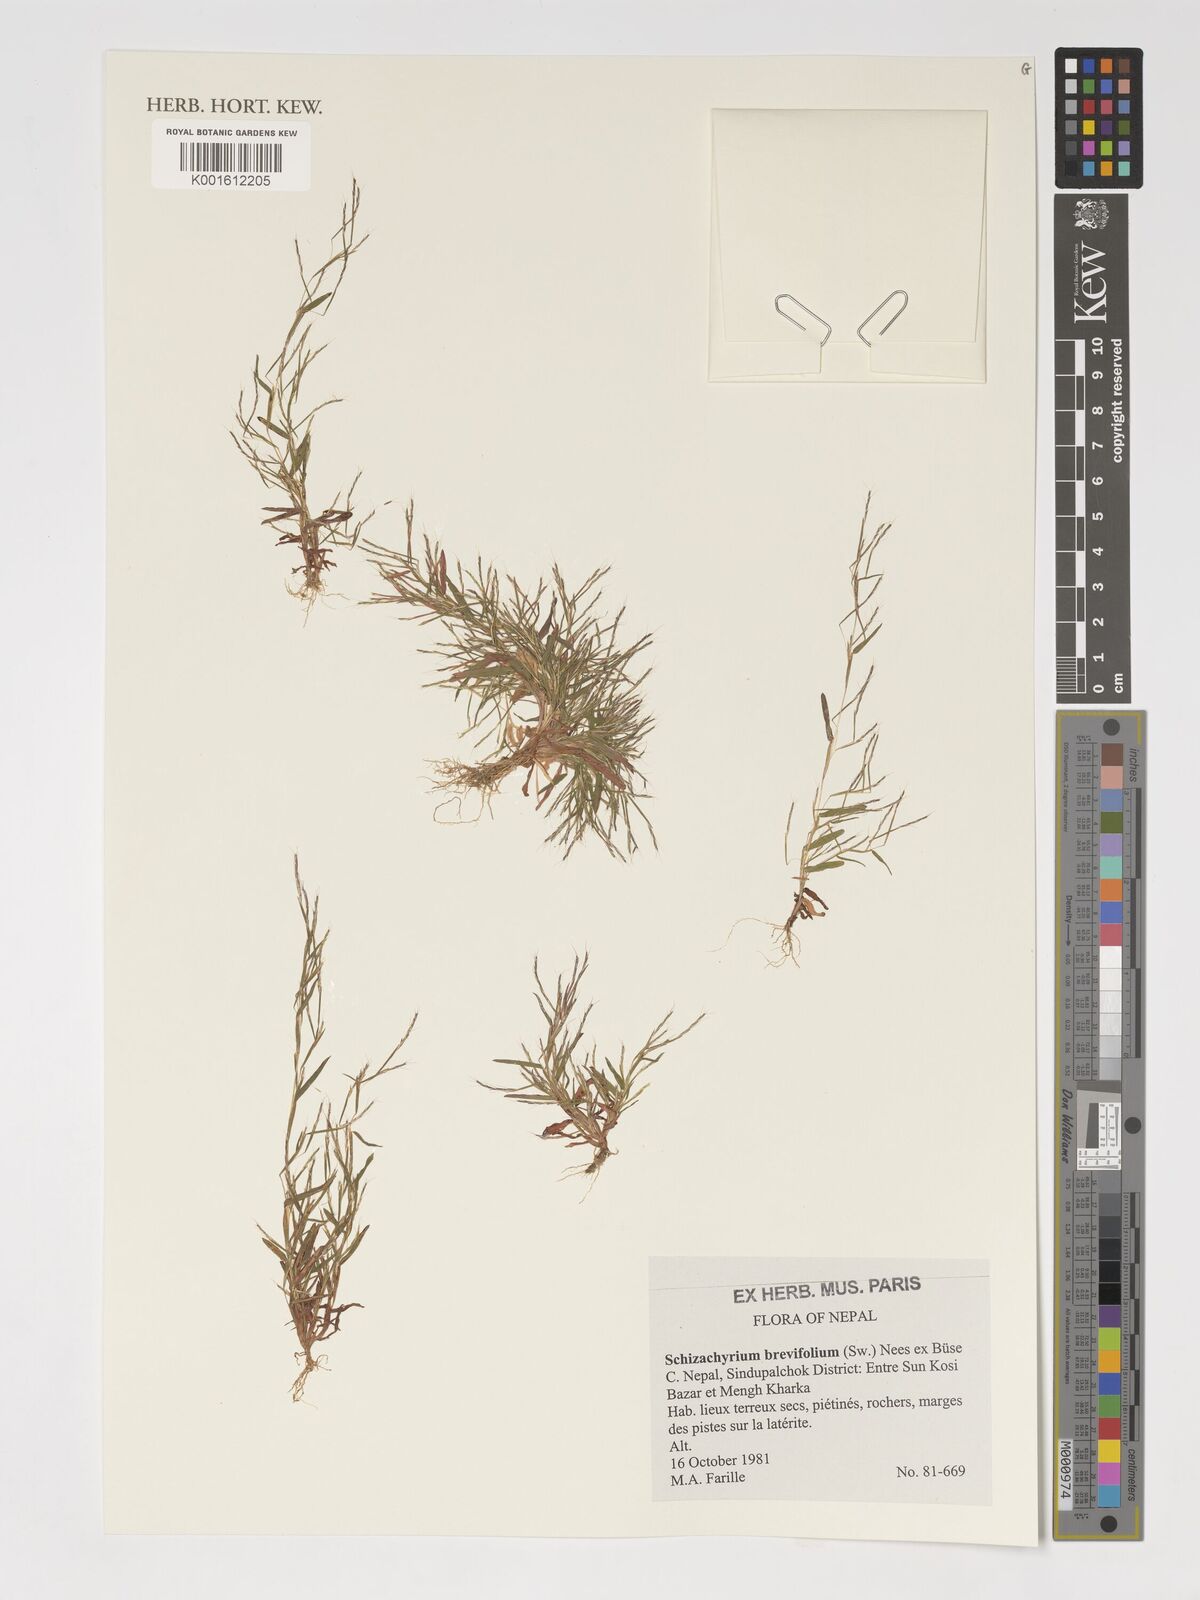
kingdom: Plantae
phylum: Tracheophyta
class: Liliopsida
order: Poales
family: Poaceae
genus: Schizachyrium
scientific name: Schizachyrium brevifolium
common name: Serillo dulce
